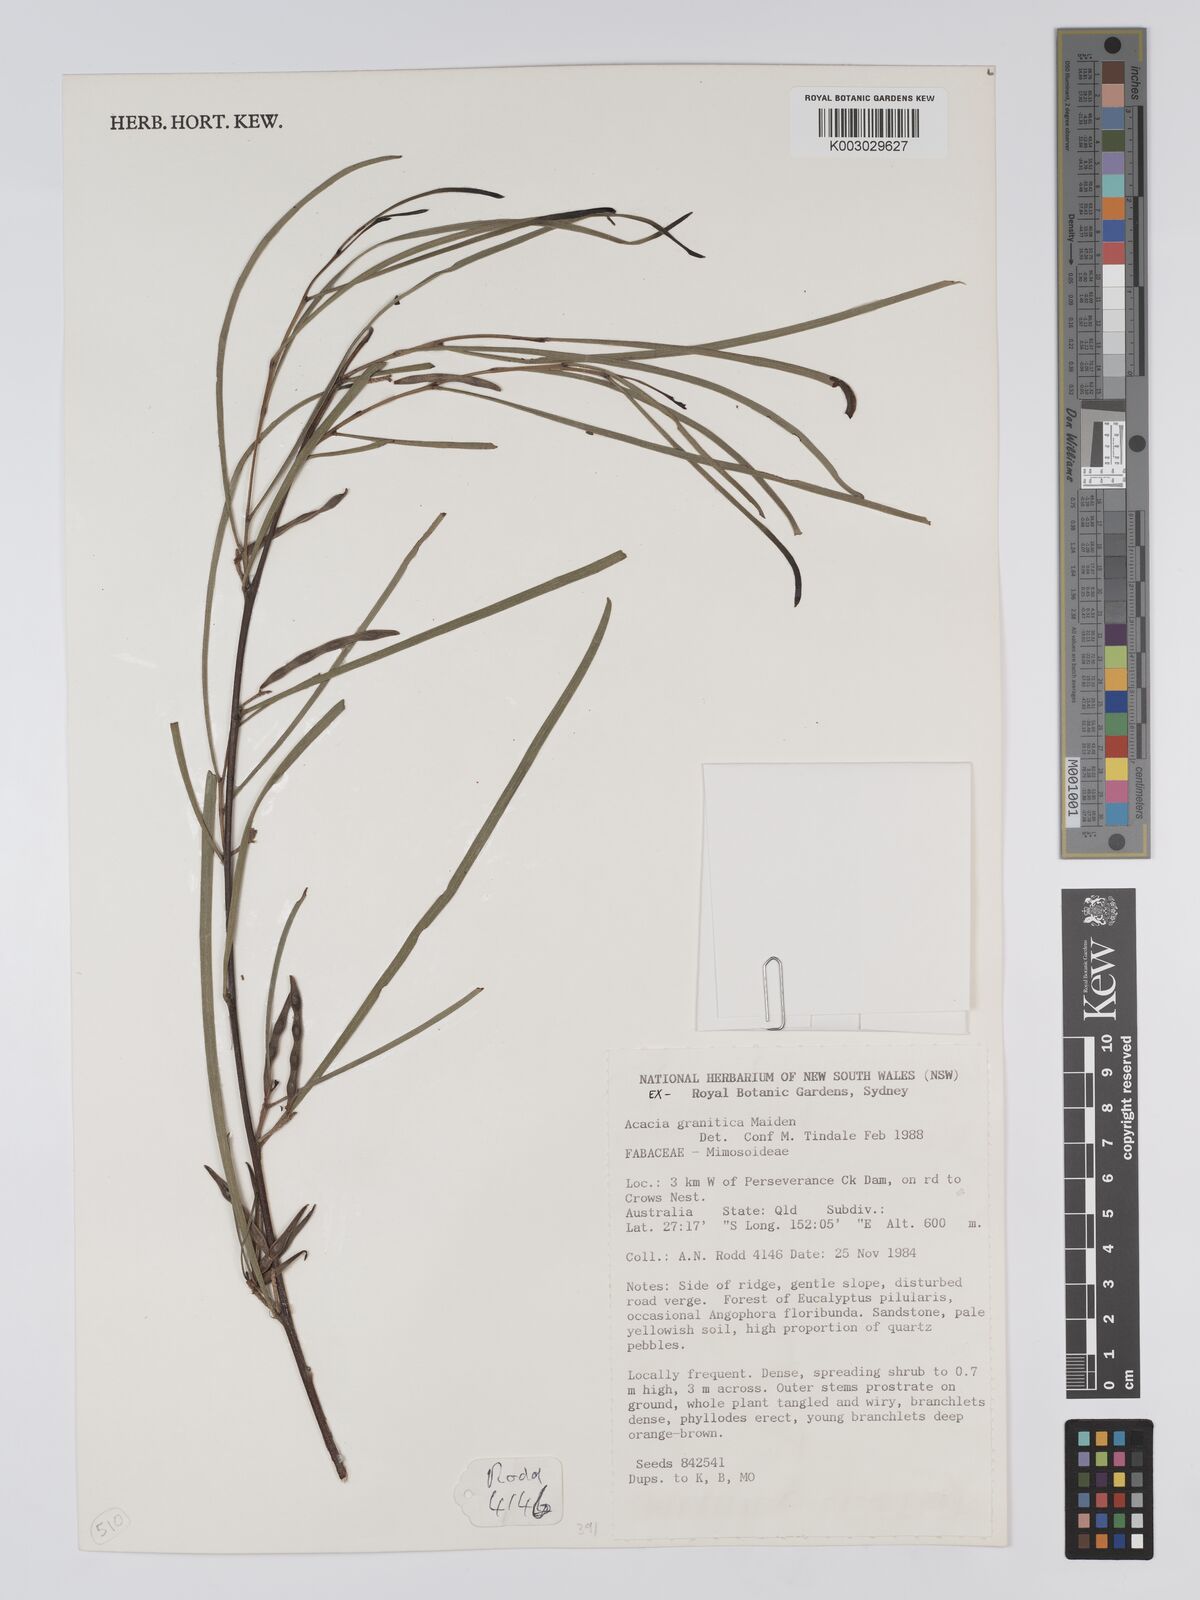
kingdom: Plantae
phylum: Tracheophyta
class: Magnoliopsida
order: Fabales
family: Fabaceae
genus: Acacia
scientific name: Acacia granitica
